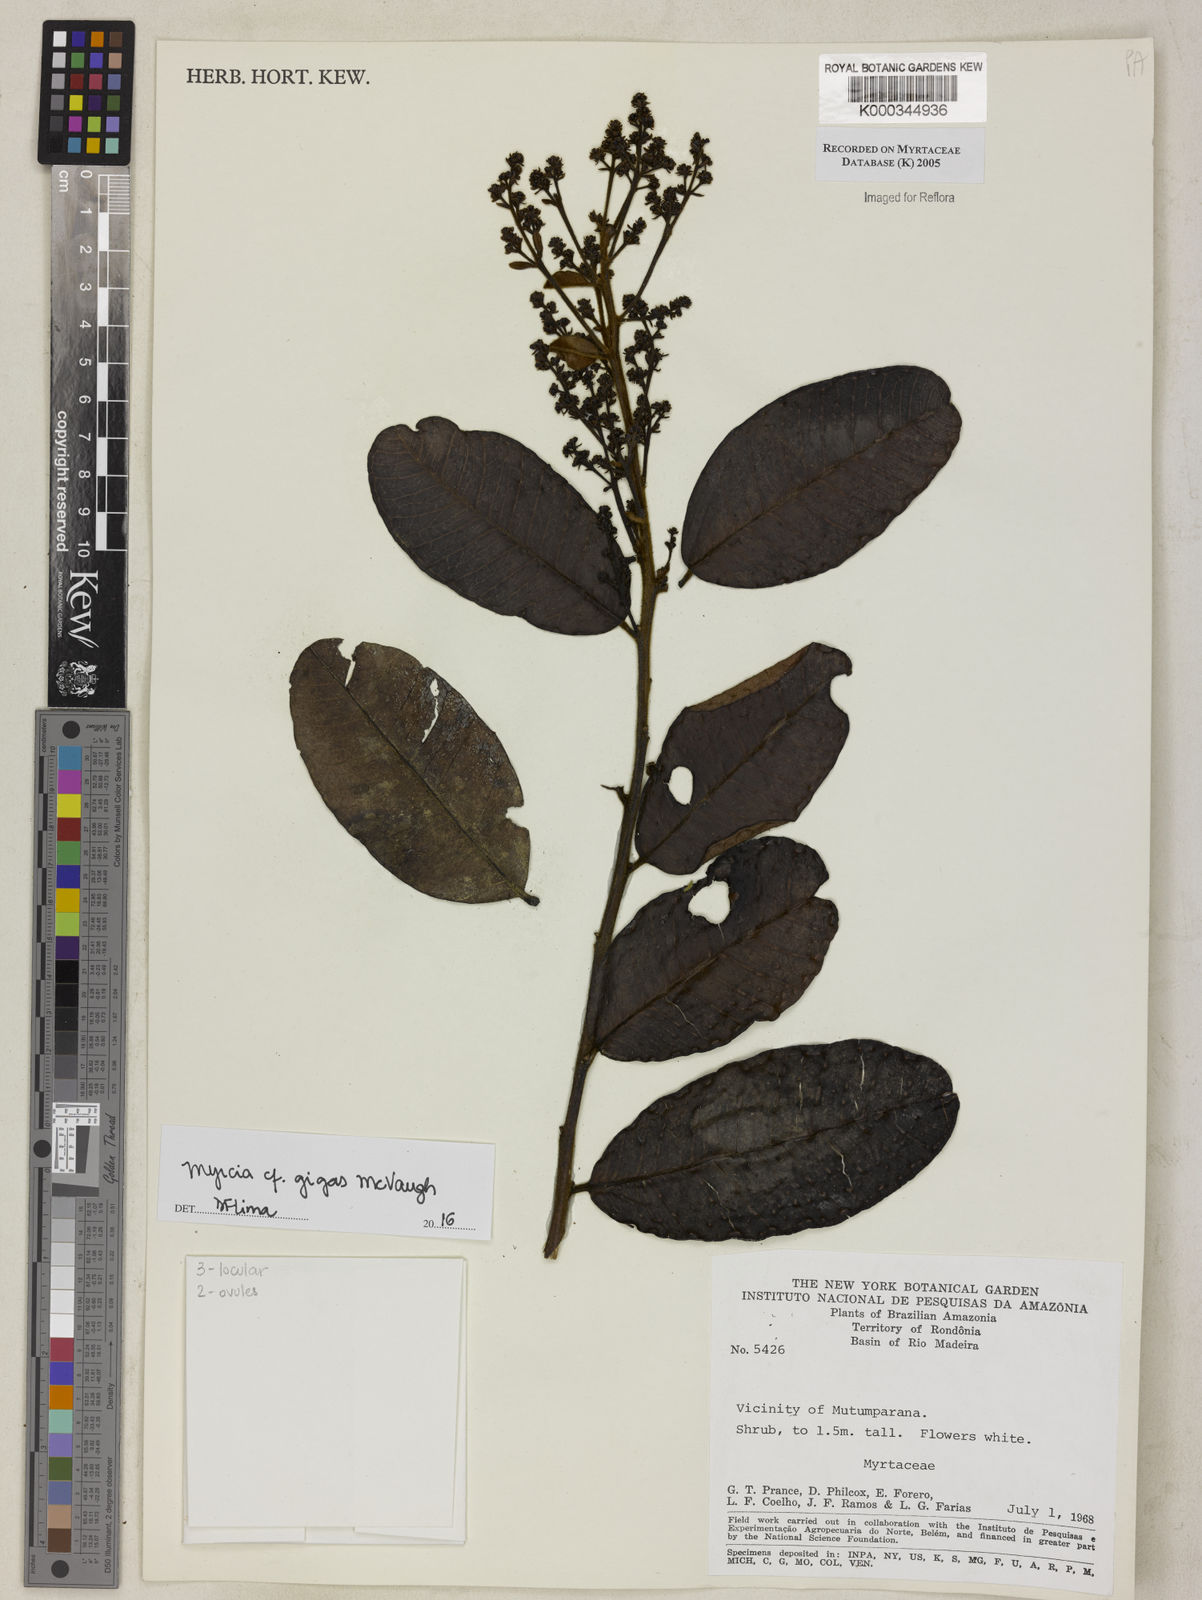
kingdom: Plantae
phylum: Tracheophyta
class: Magnoliopsida
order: Myrtales
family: Myrtaceae
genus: Myrcia
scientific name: Myrcia
